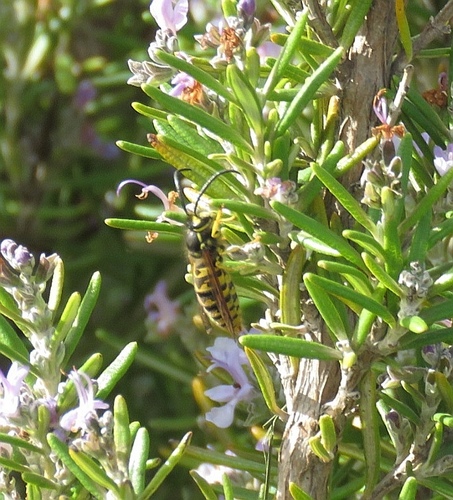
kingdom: Animalia
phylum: Arthropoda
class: Insecta
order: Hymenoptera
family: Vespidae
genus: Vespula
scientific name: Vespula germanica
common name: German wasp
